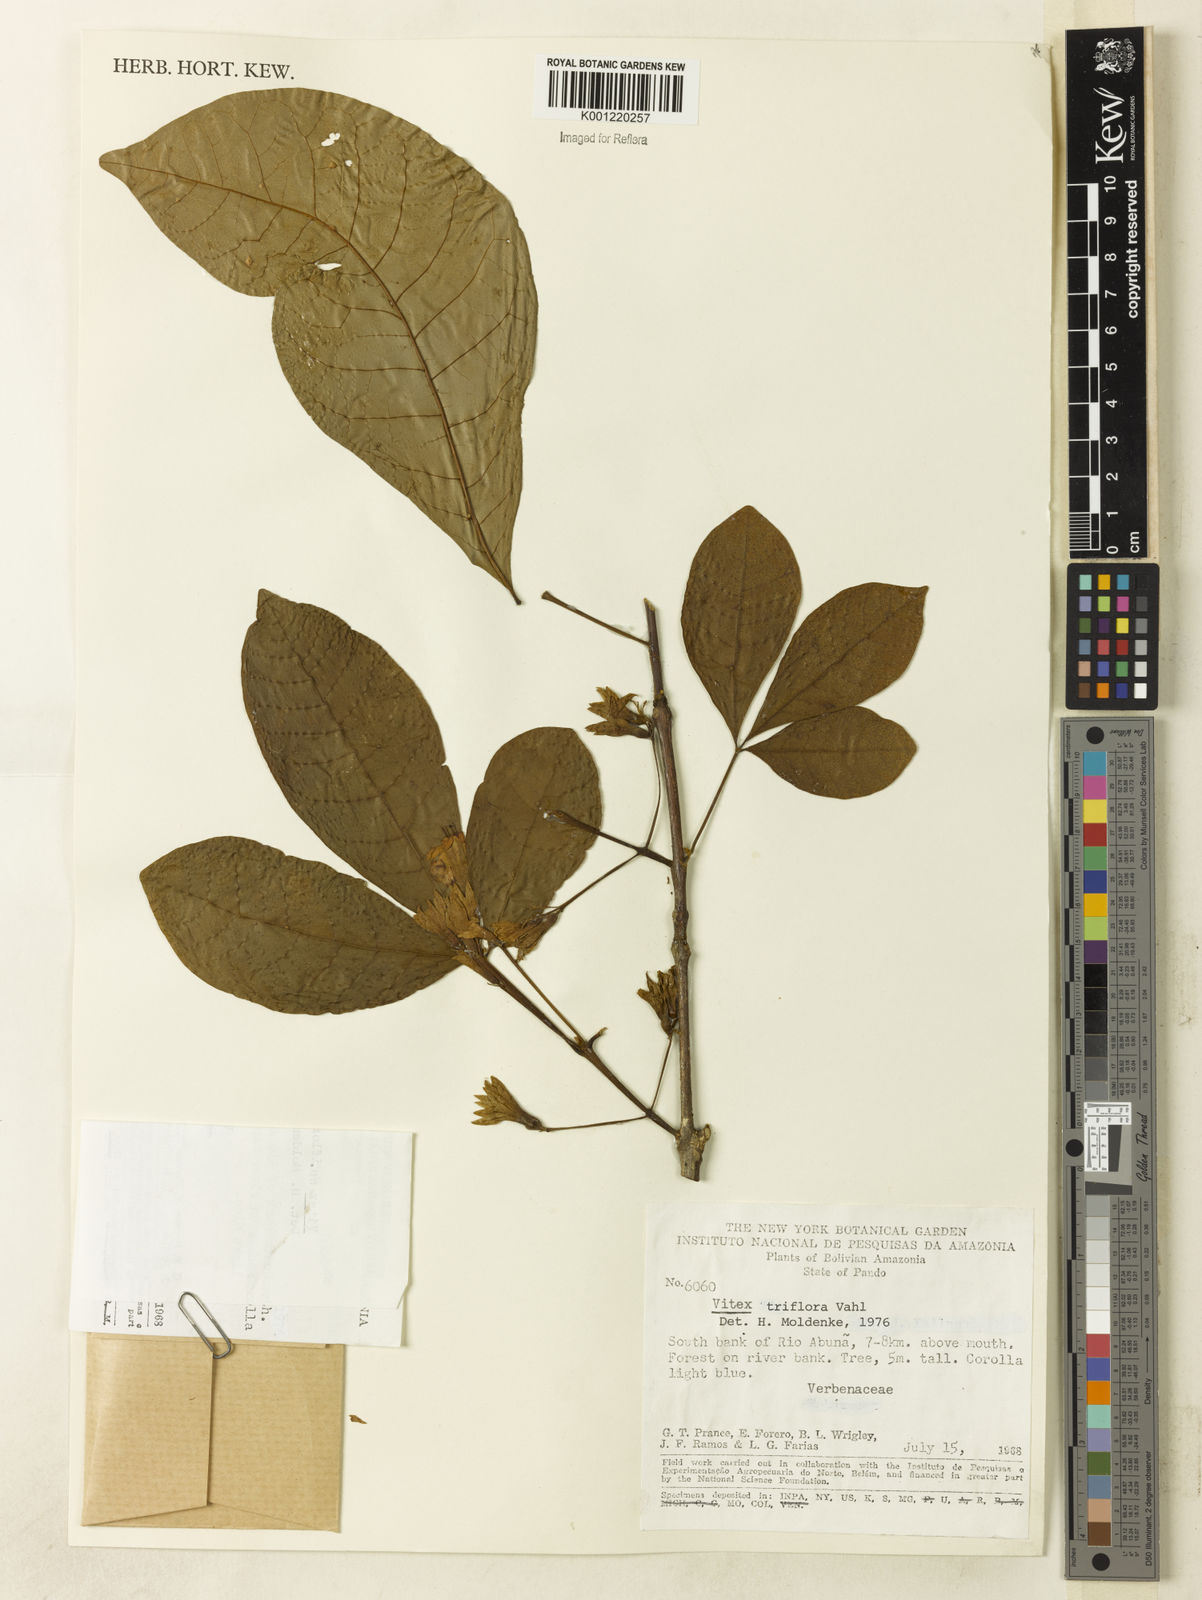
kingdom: Plantae
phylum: Tracheophyta
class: Magnoliopsida
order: Lamiales
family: Lamiaceae
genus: Vitex
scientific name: Vitex triflora
